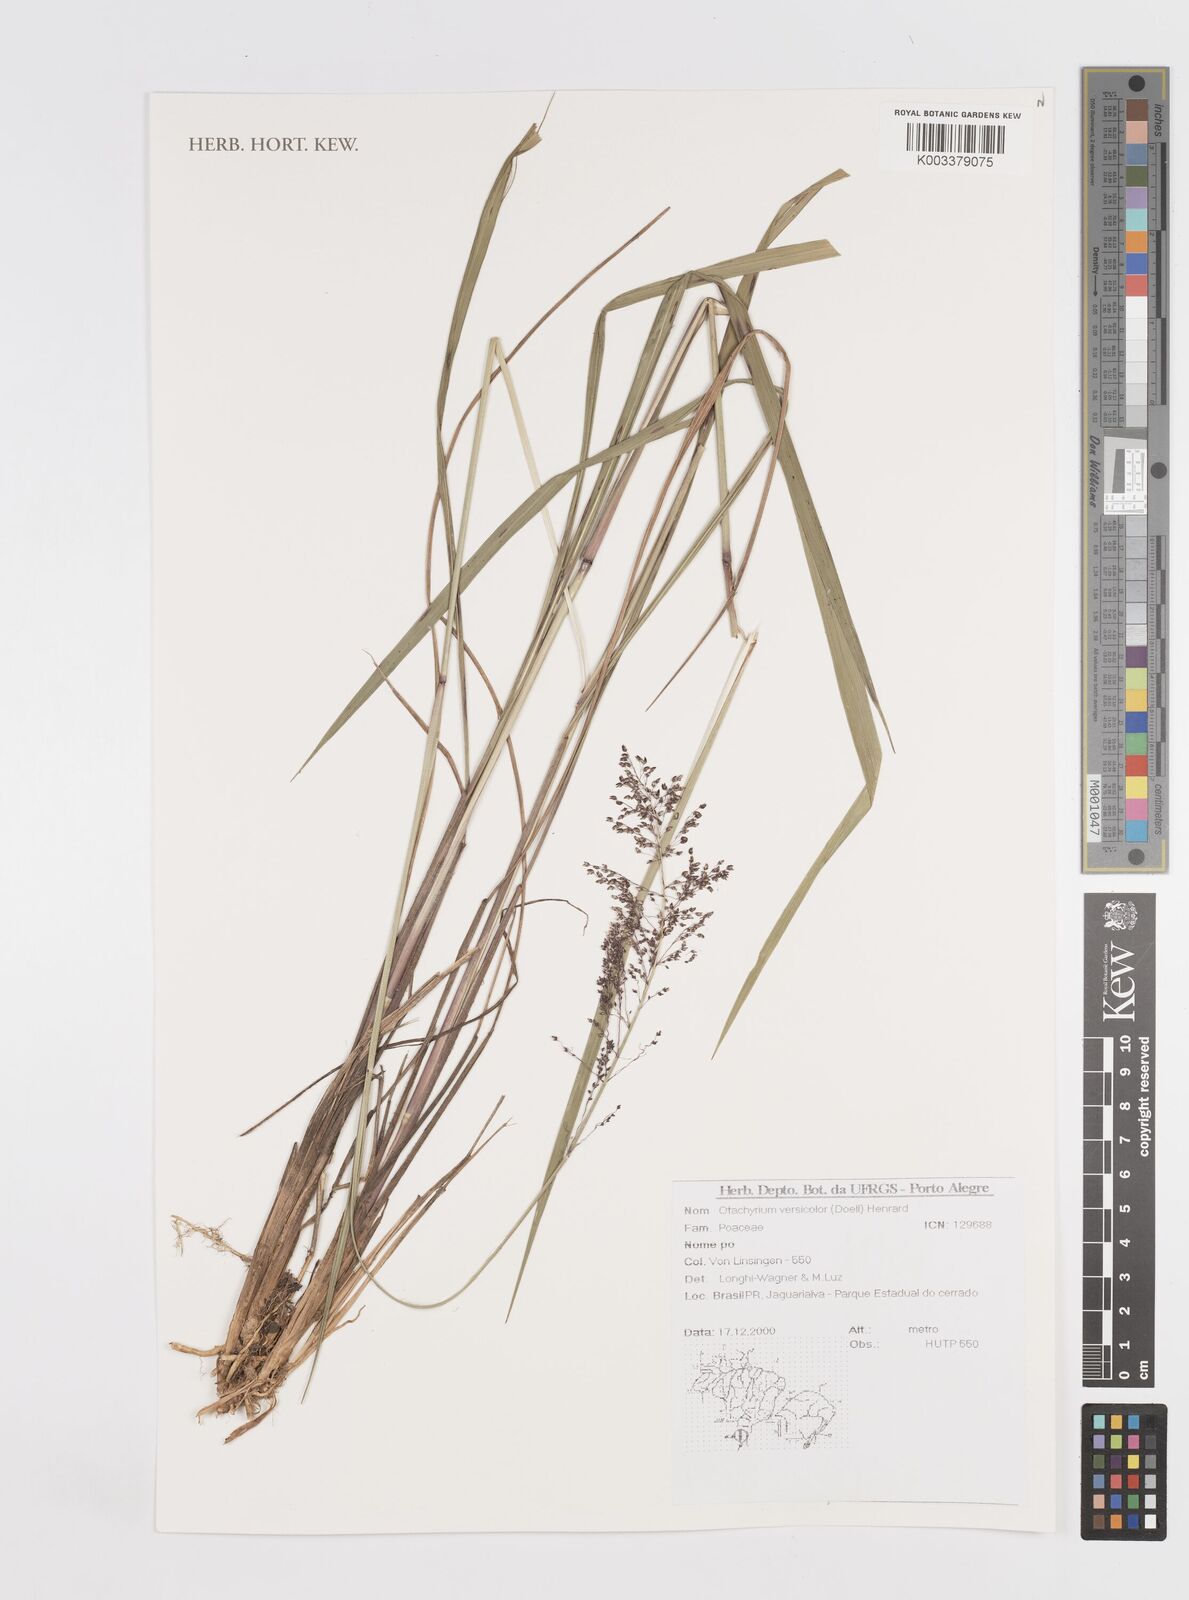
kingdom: Plantae
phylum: Tracheophyta
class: Liliopsida
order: Poales
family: Poaceae
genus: Otachyrium
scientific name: Otachyrium versicolor
